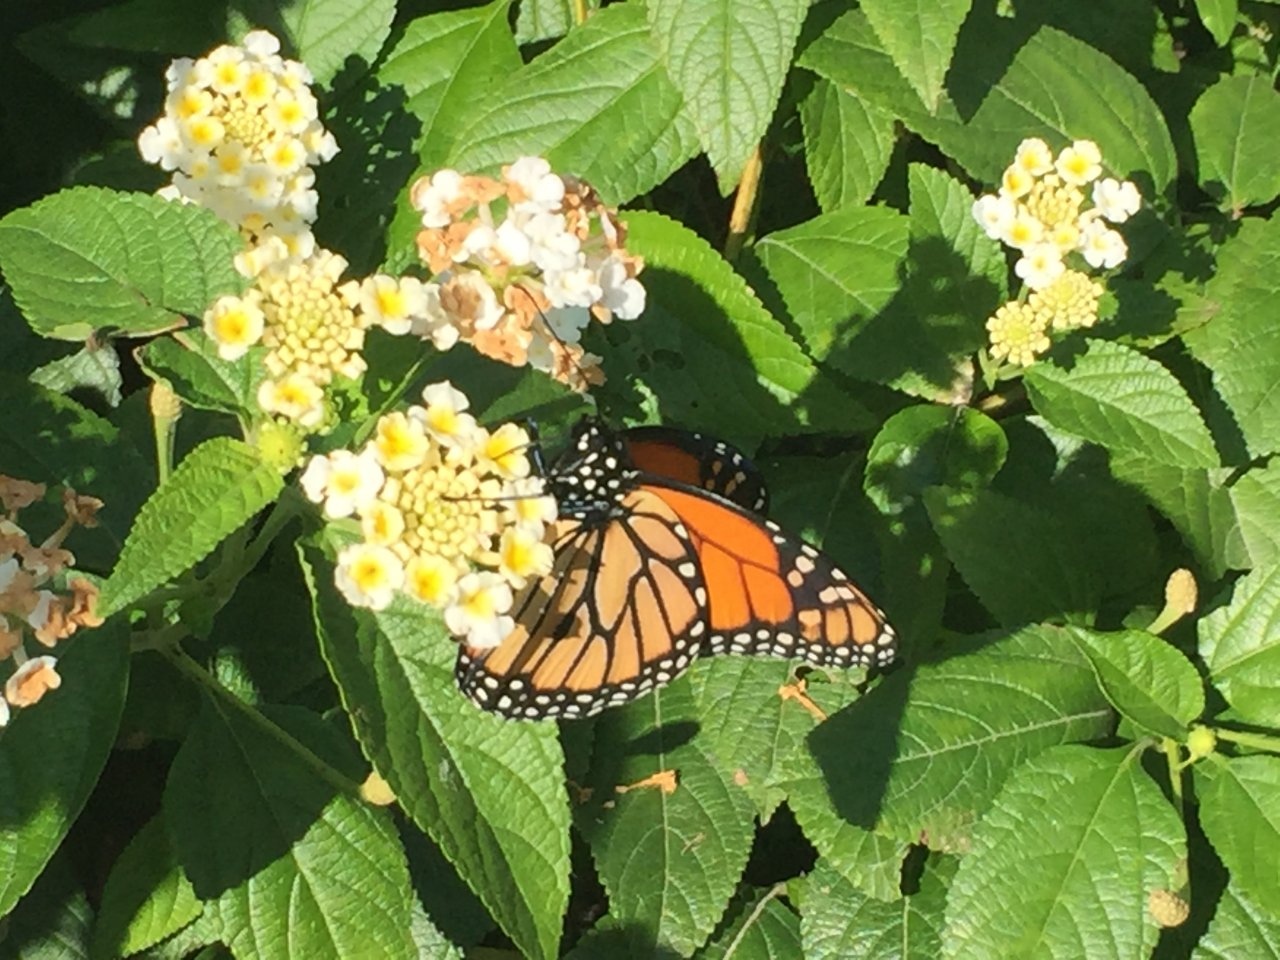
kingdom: Animalia
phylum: Arthropoda
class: Insecta
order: Lepidoptera
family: Nymphalidae
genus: Danaus
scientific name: Danaus plexippus
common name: Monarch
